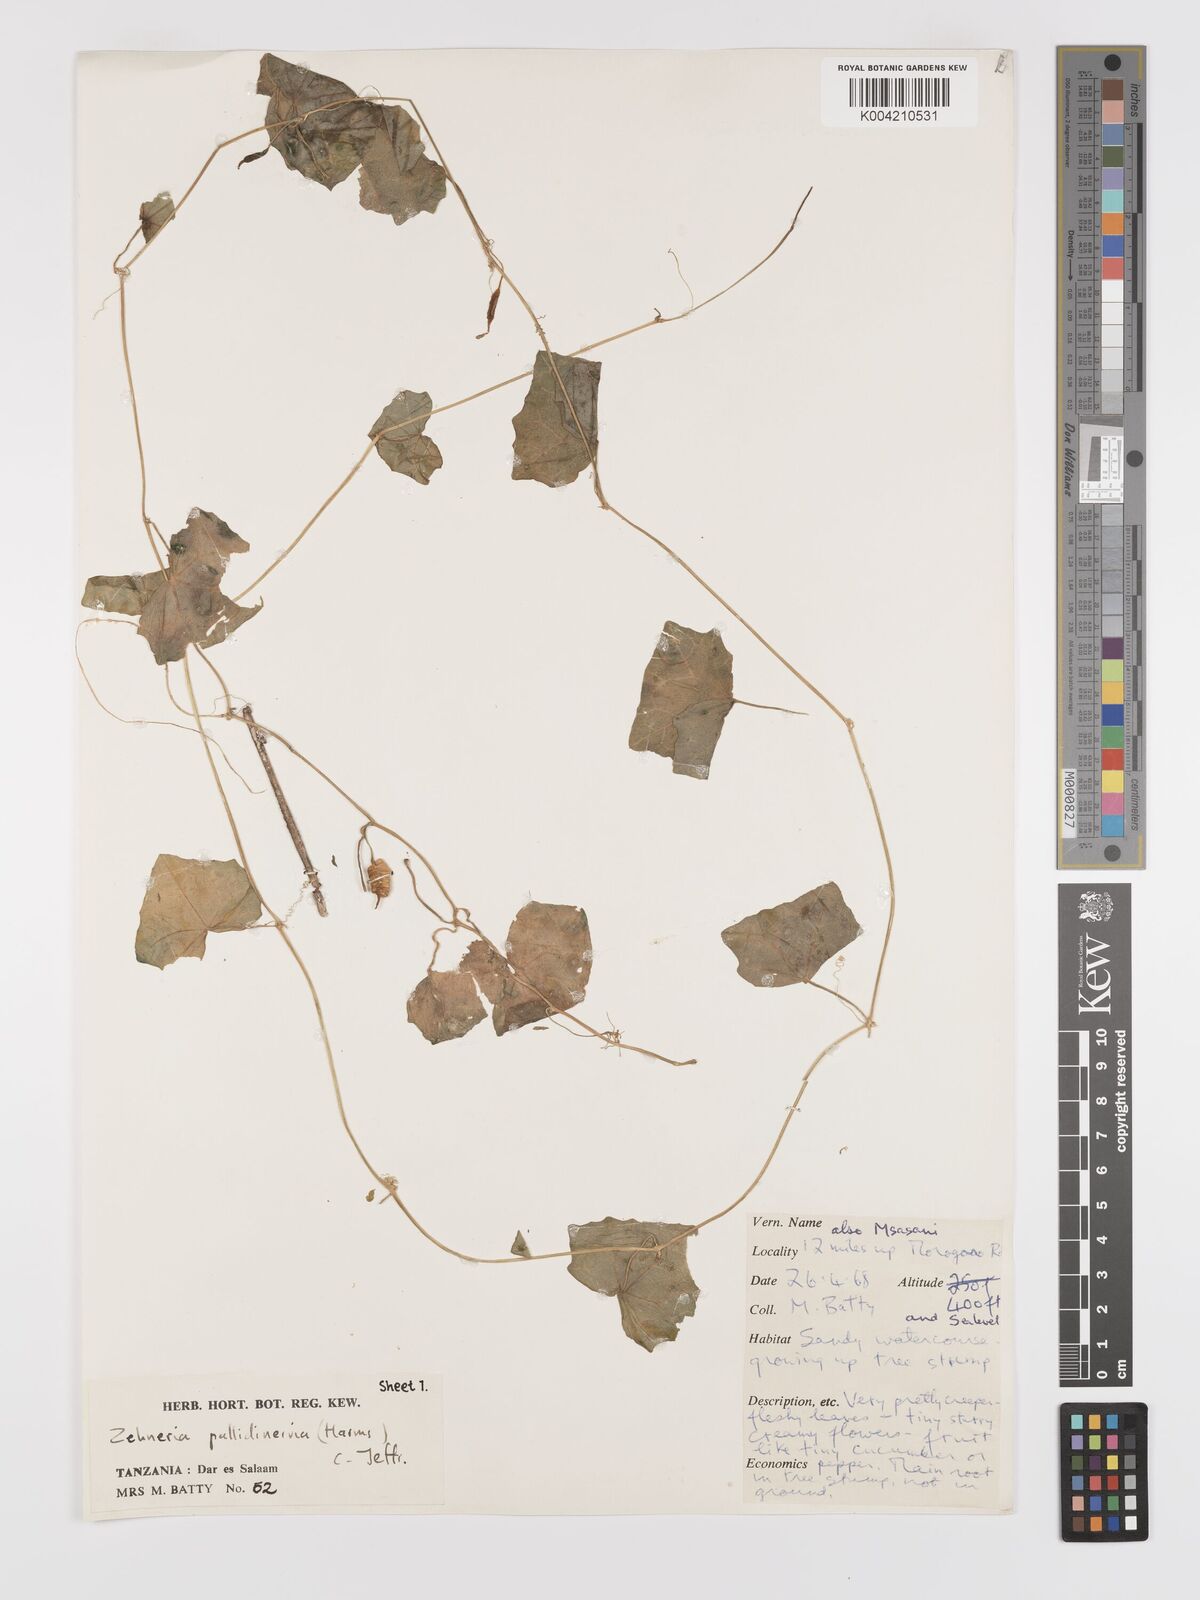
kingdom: Plantae
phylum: Tracheophyta
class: Magnoliopsida
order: Cucurbitales
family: Cucurbitaceae
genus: Zehneria
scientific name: Zehneria pallidinervia
